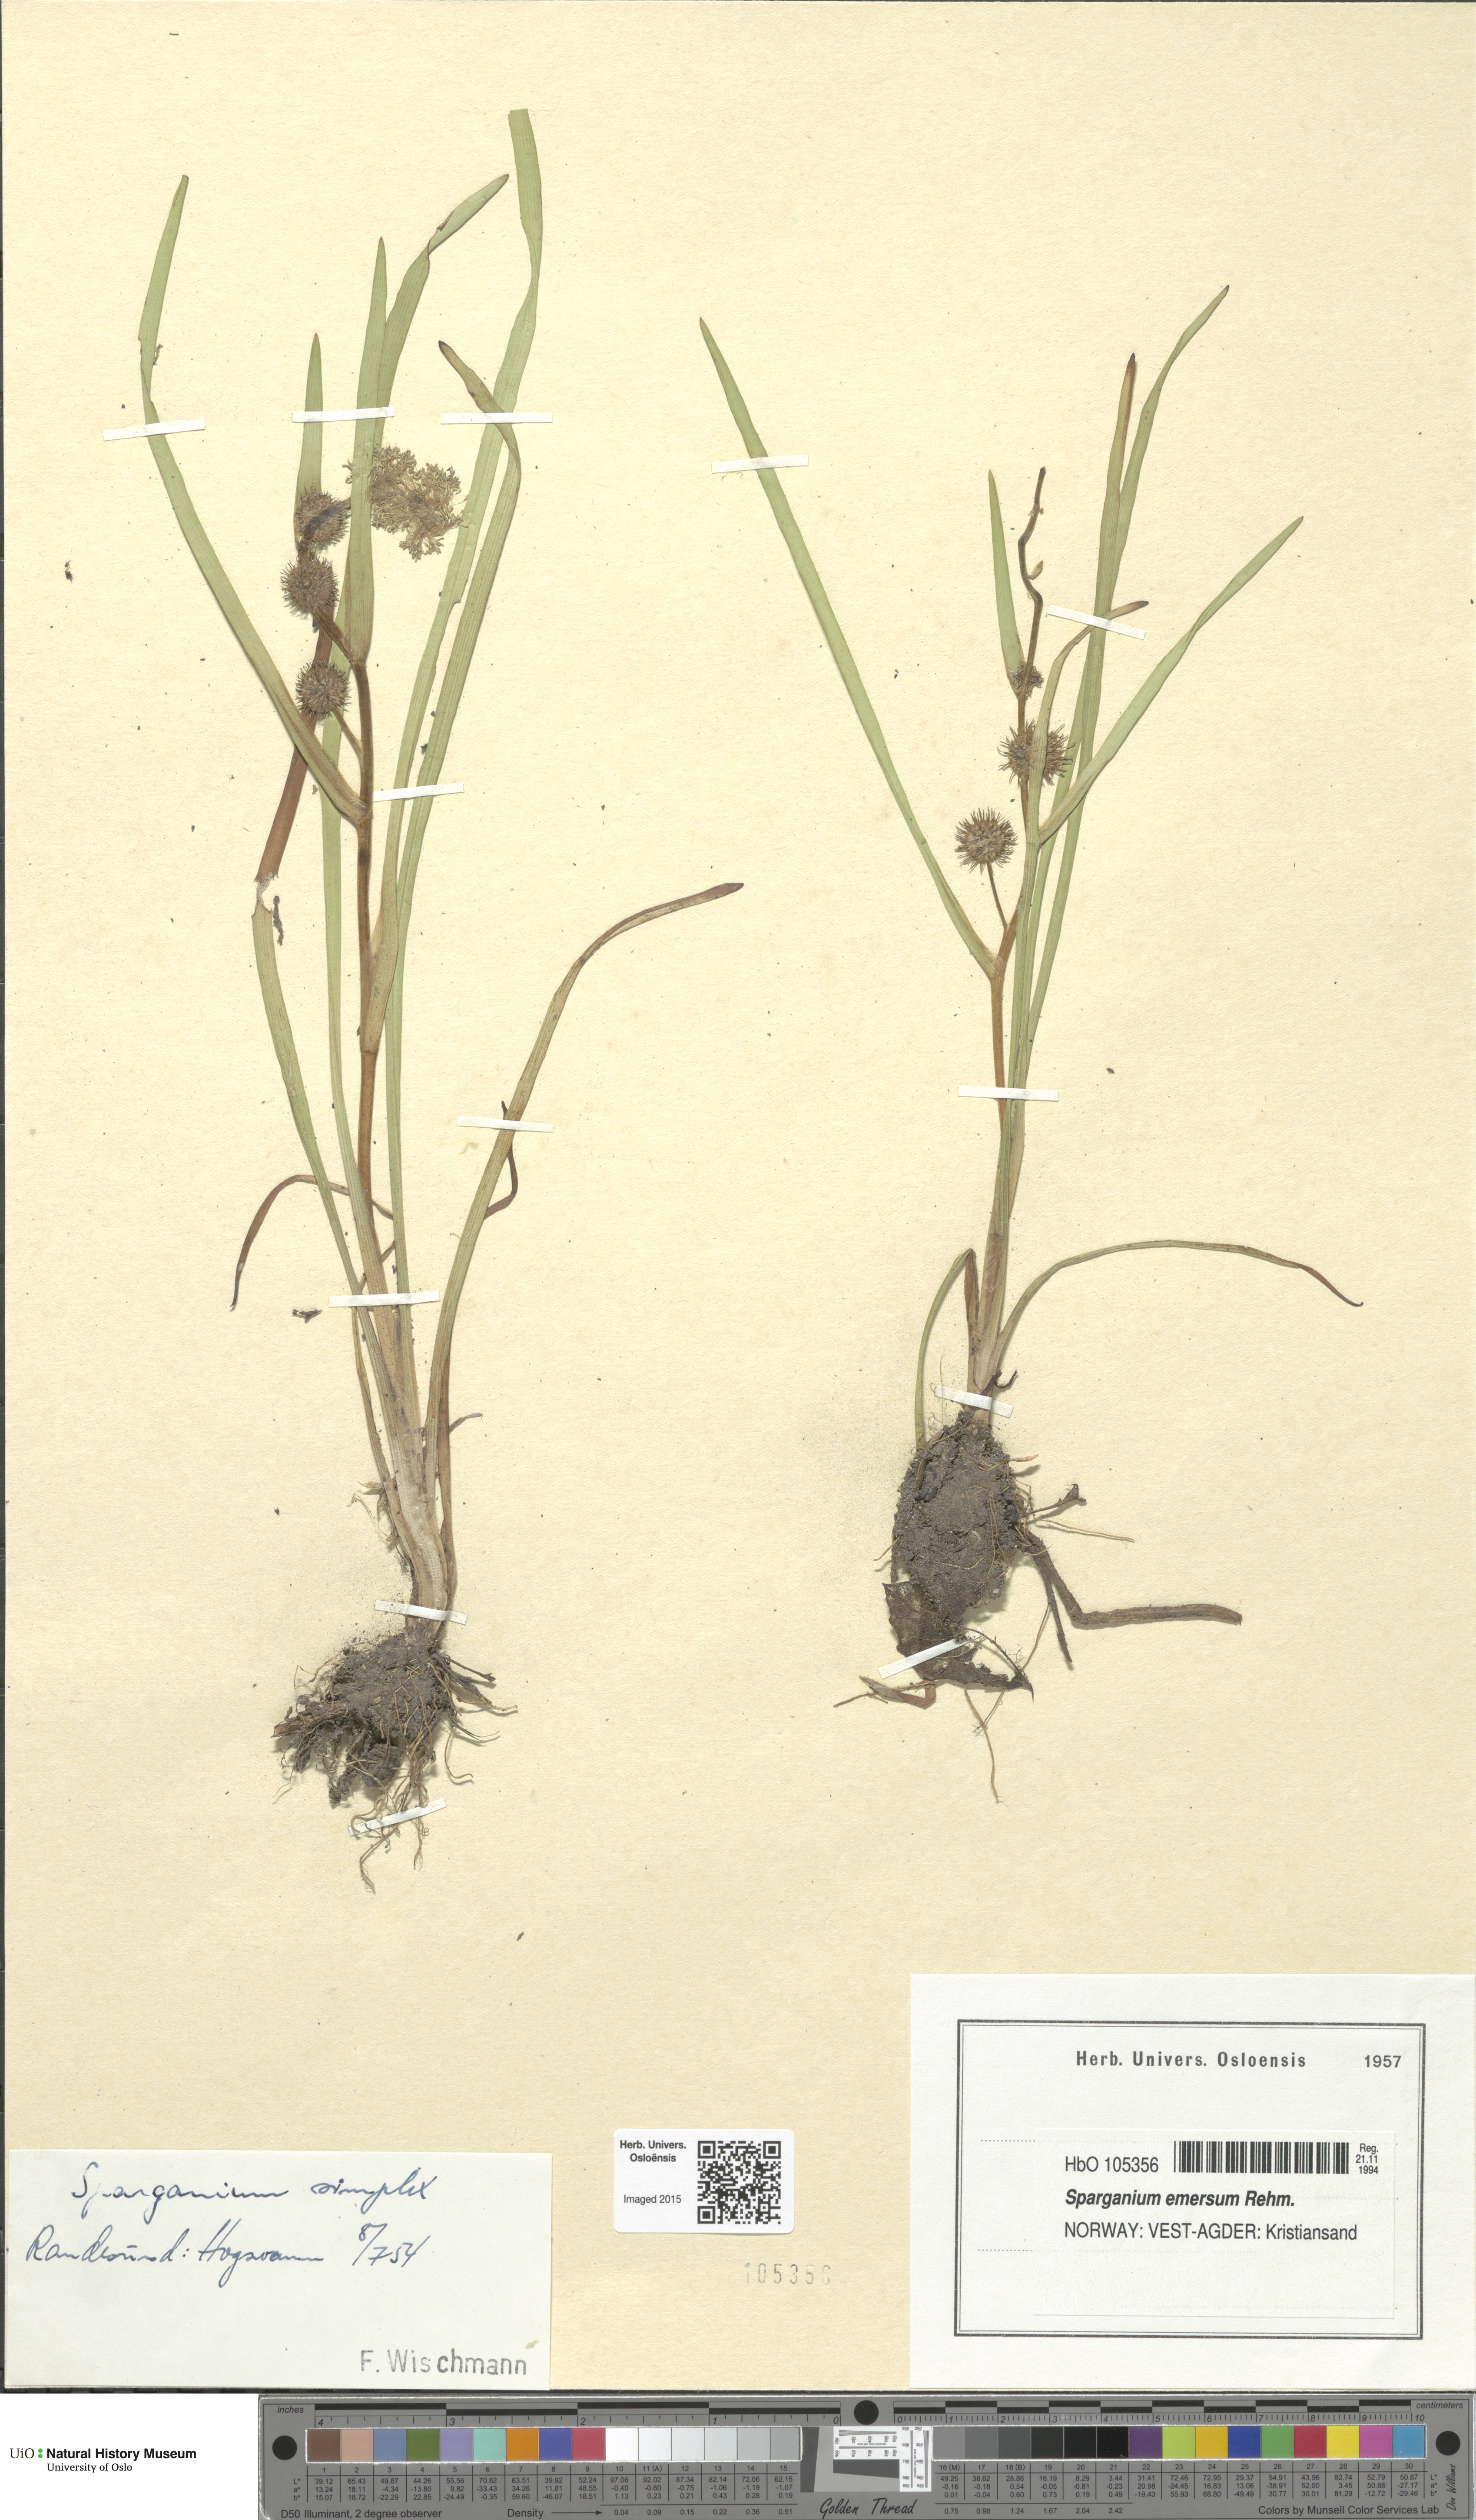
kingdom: Plantae
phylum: Tracheophyta
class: Liliopsida
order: Poales
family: Typhaceae
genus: Sparganium
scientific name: Sparganium emersum
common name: Unbranched bur-reed
